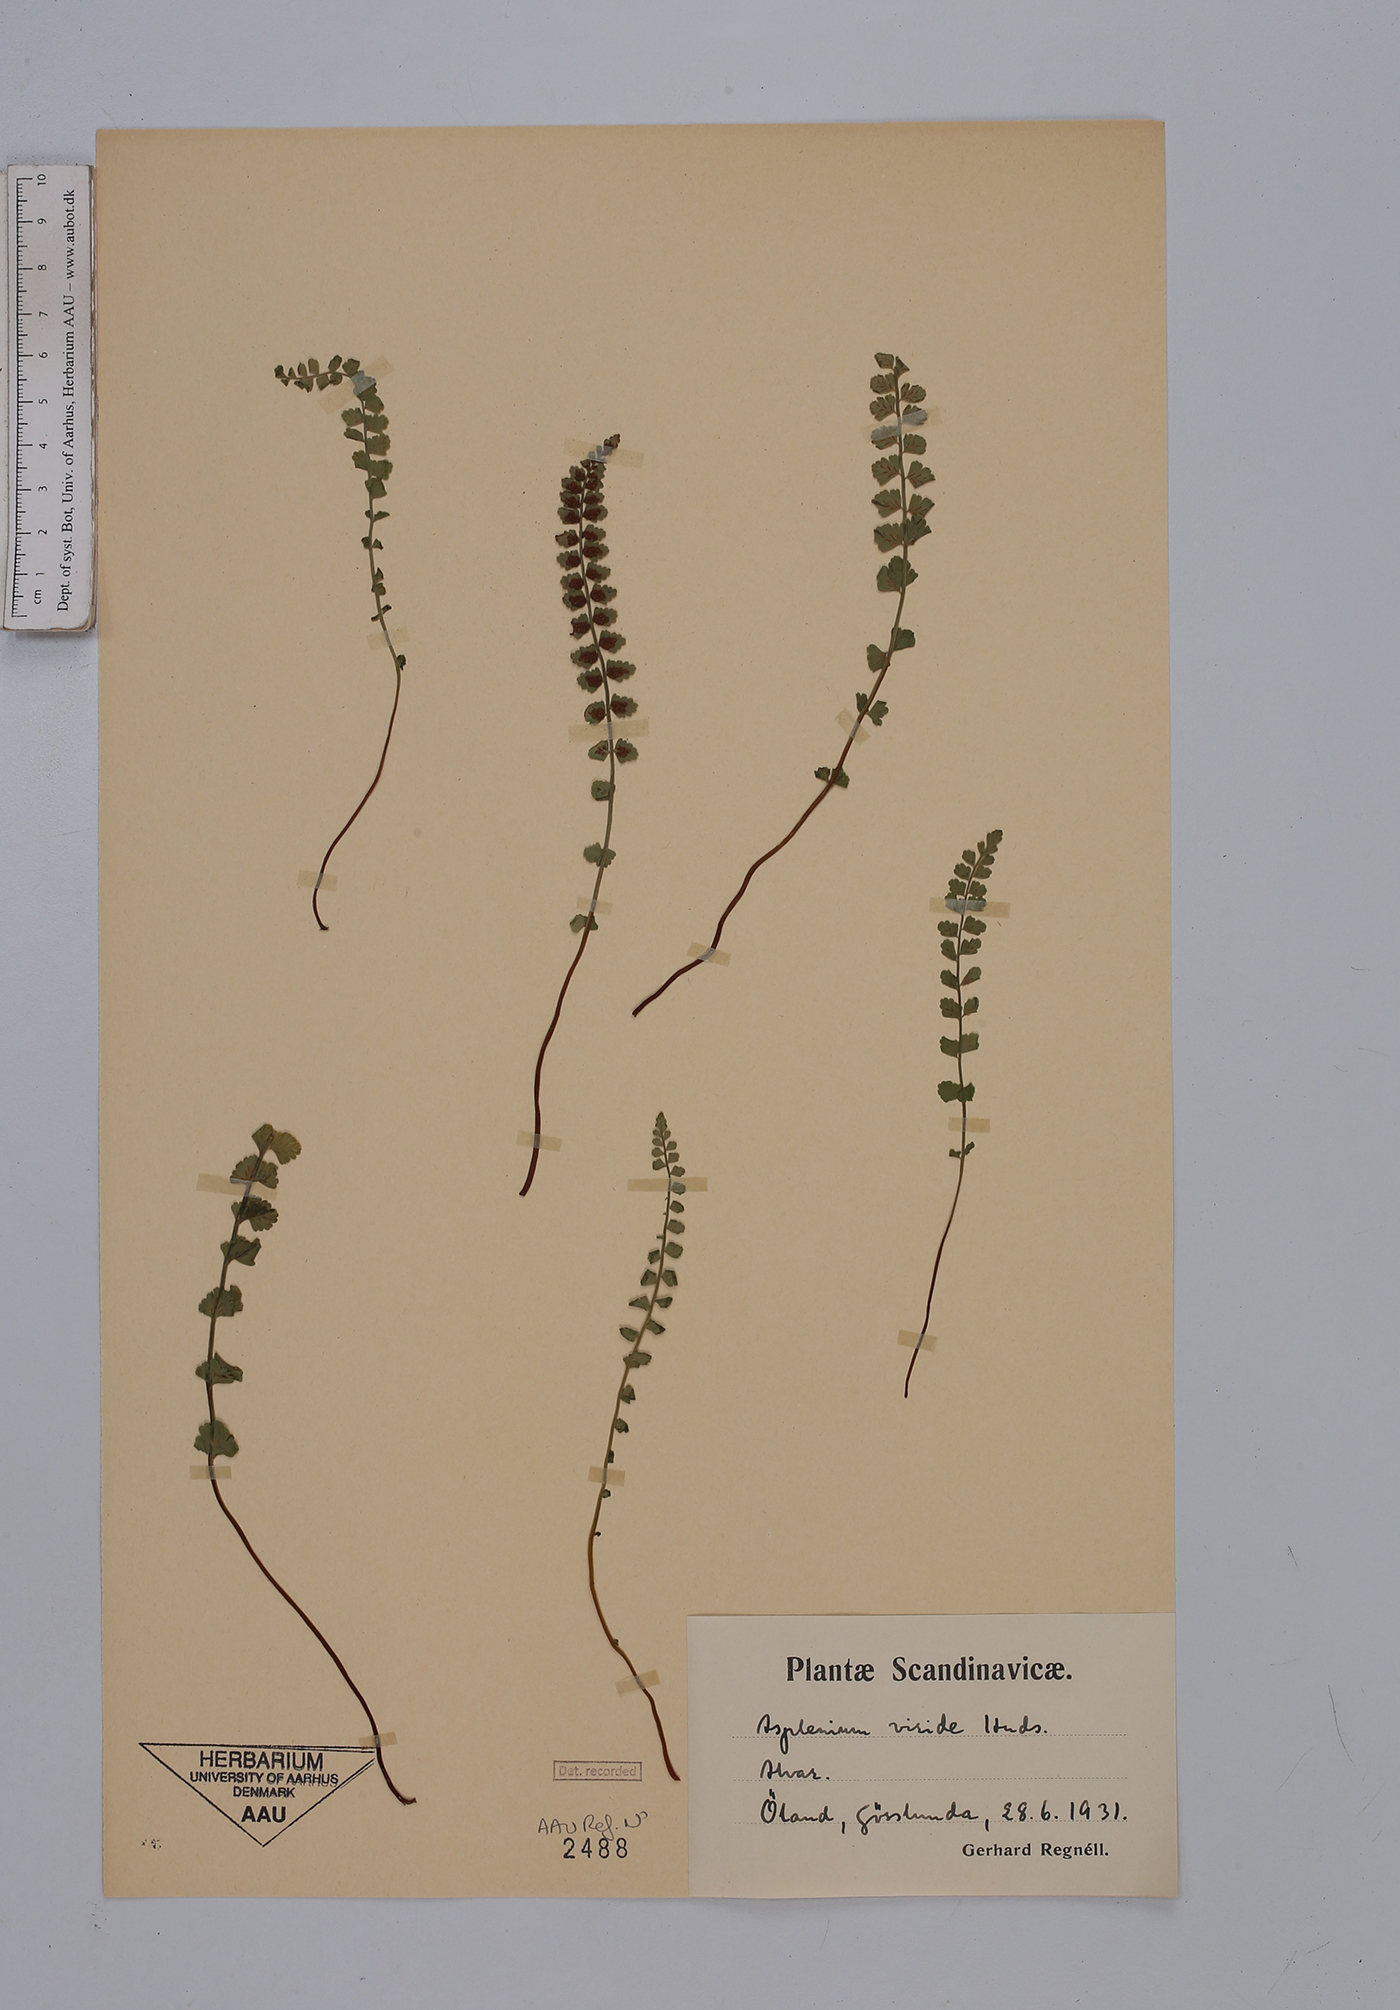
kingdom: Plantae
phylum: Tracheophyta
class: Polypodiopsida
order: Polypodiales
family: Aspleniaceae
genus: Asplenium
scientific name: Asplenium viride
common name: Green spleenwort
